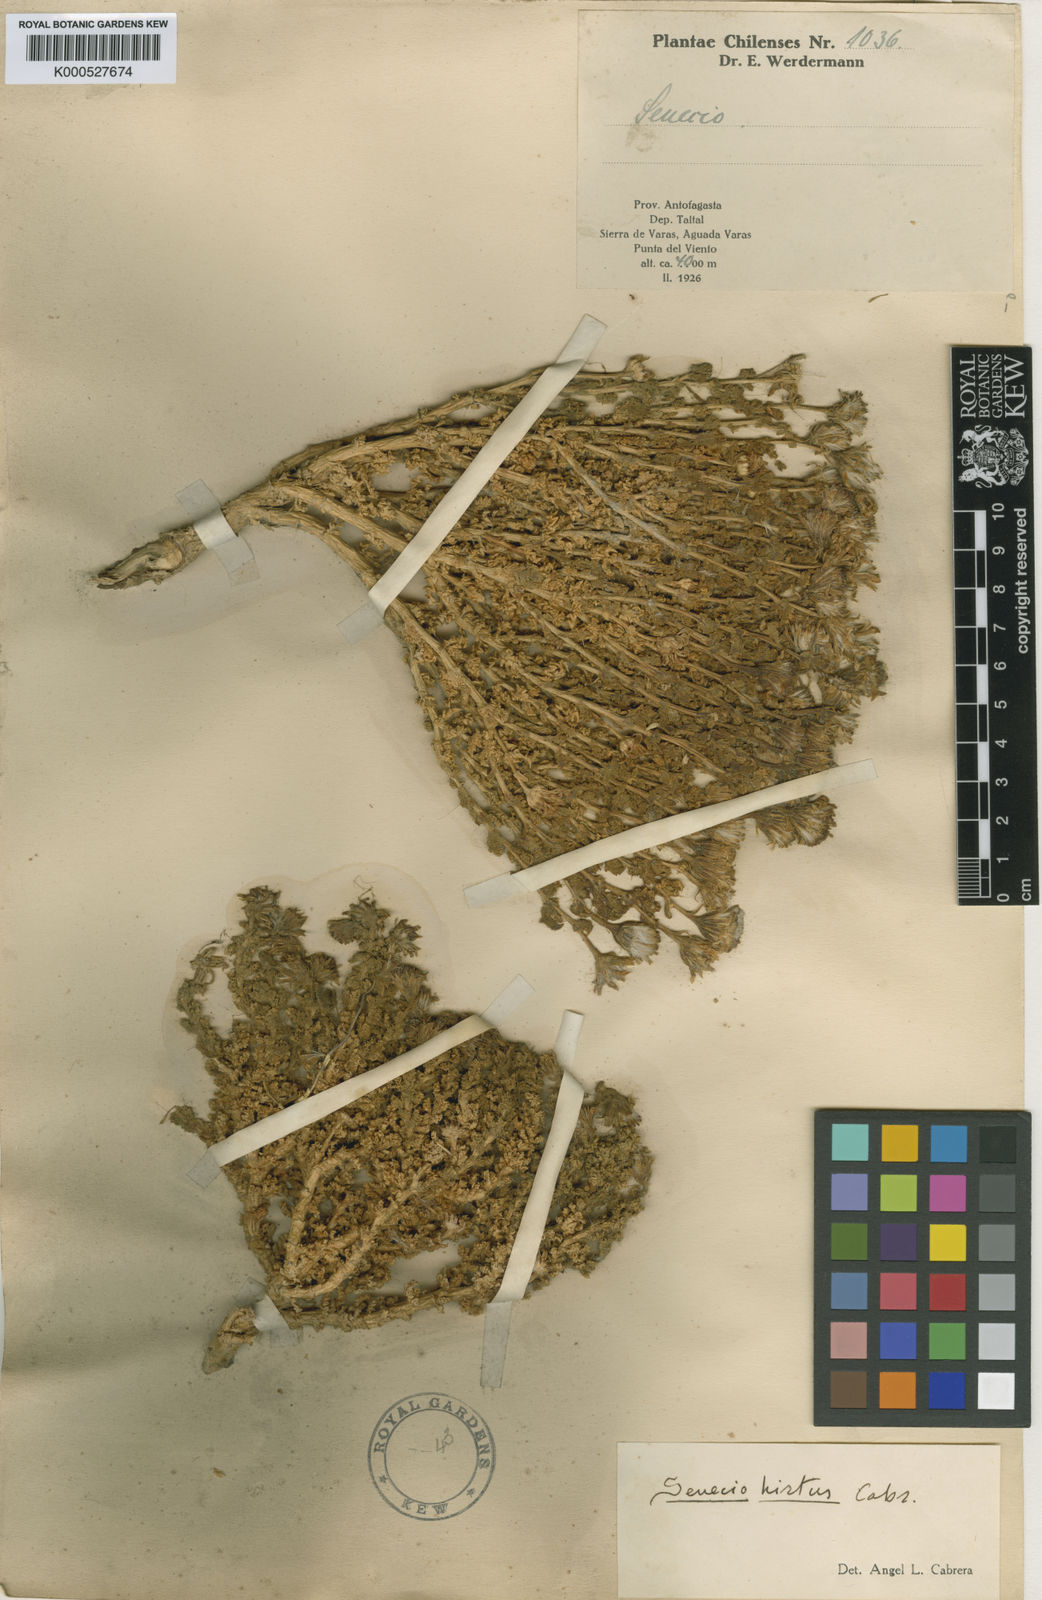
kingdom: Plantae
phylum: Tracheophyta
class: Magnoliopsida
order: Asterales
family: Asteraceae
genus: Senecio
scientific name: Senecio hirtus
